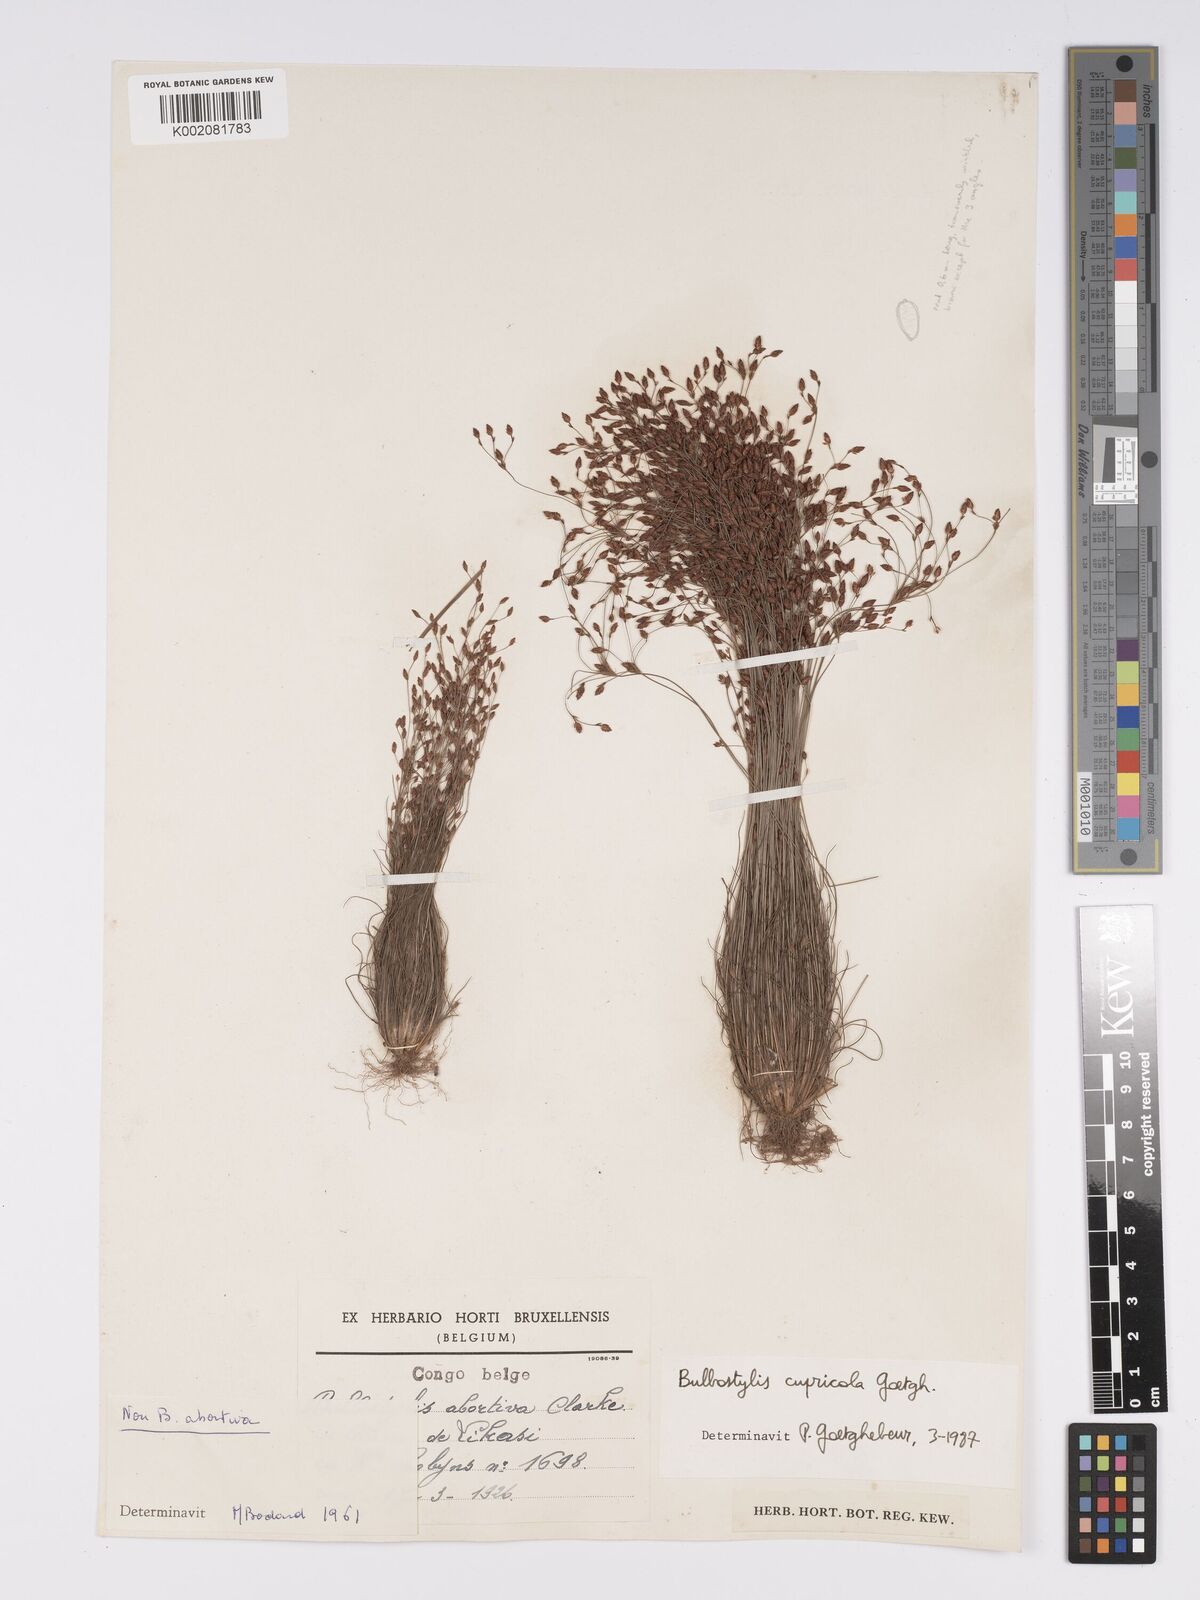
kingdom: Plantae
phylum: Tracheophyta
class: Liliopsida
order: Poales
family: Cyperaceae
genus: Bulbostylis
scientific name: Bulbostylis cupricola
